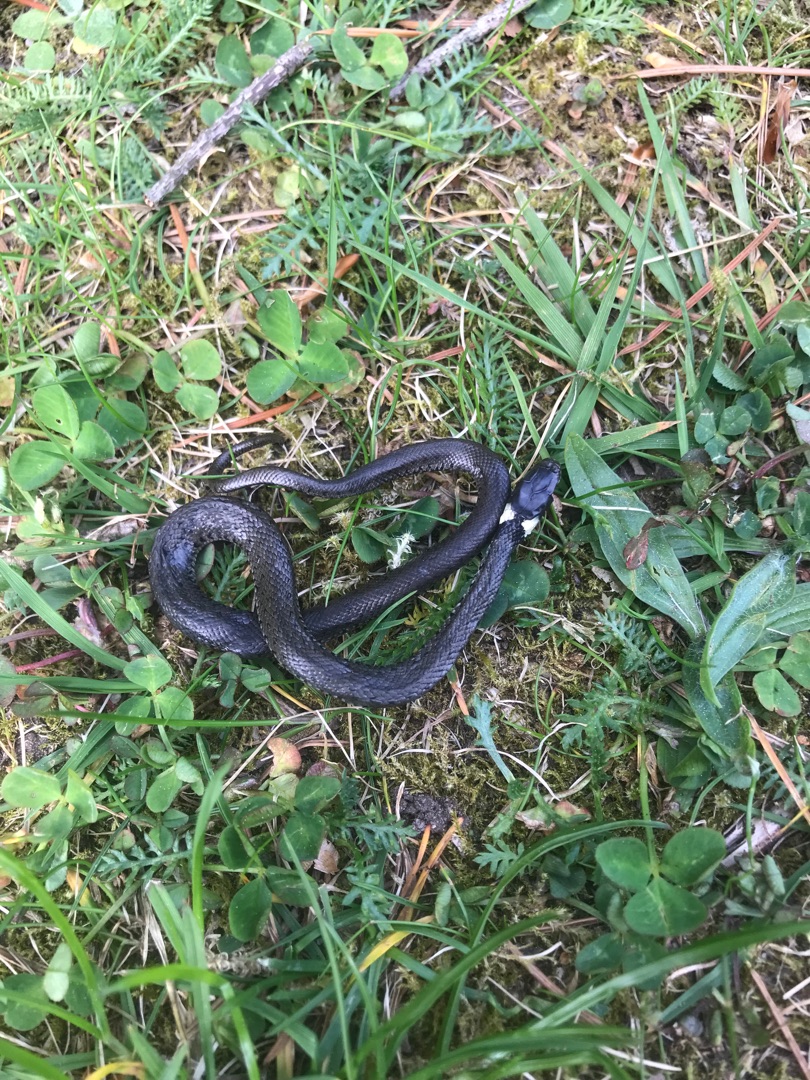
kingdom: Animalia
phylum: Chordata
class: Squamata
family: Colubridae
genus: Natrix
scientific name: Natrix natrix
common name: Snog
